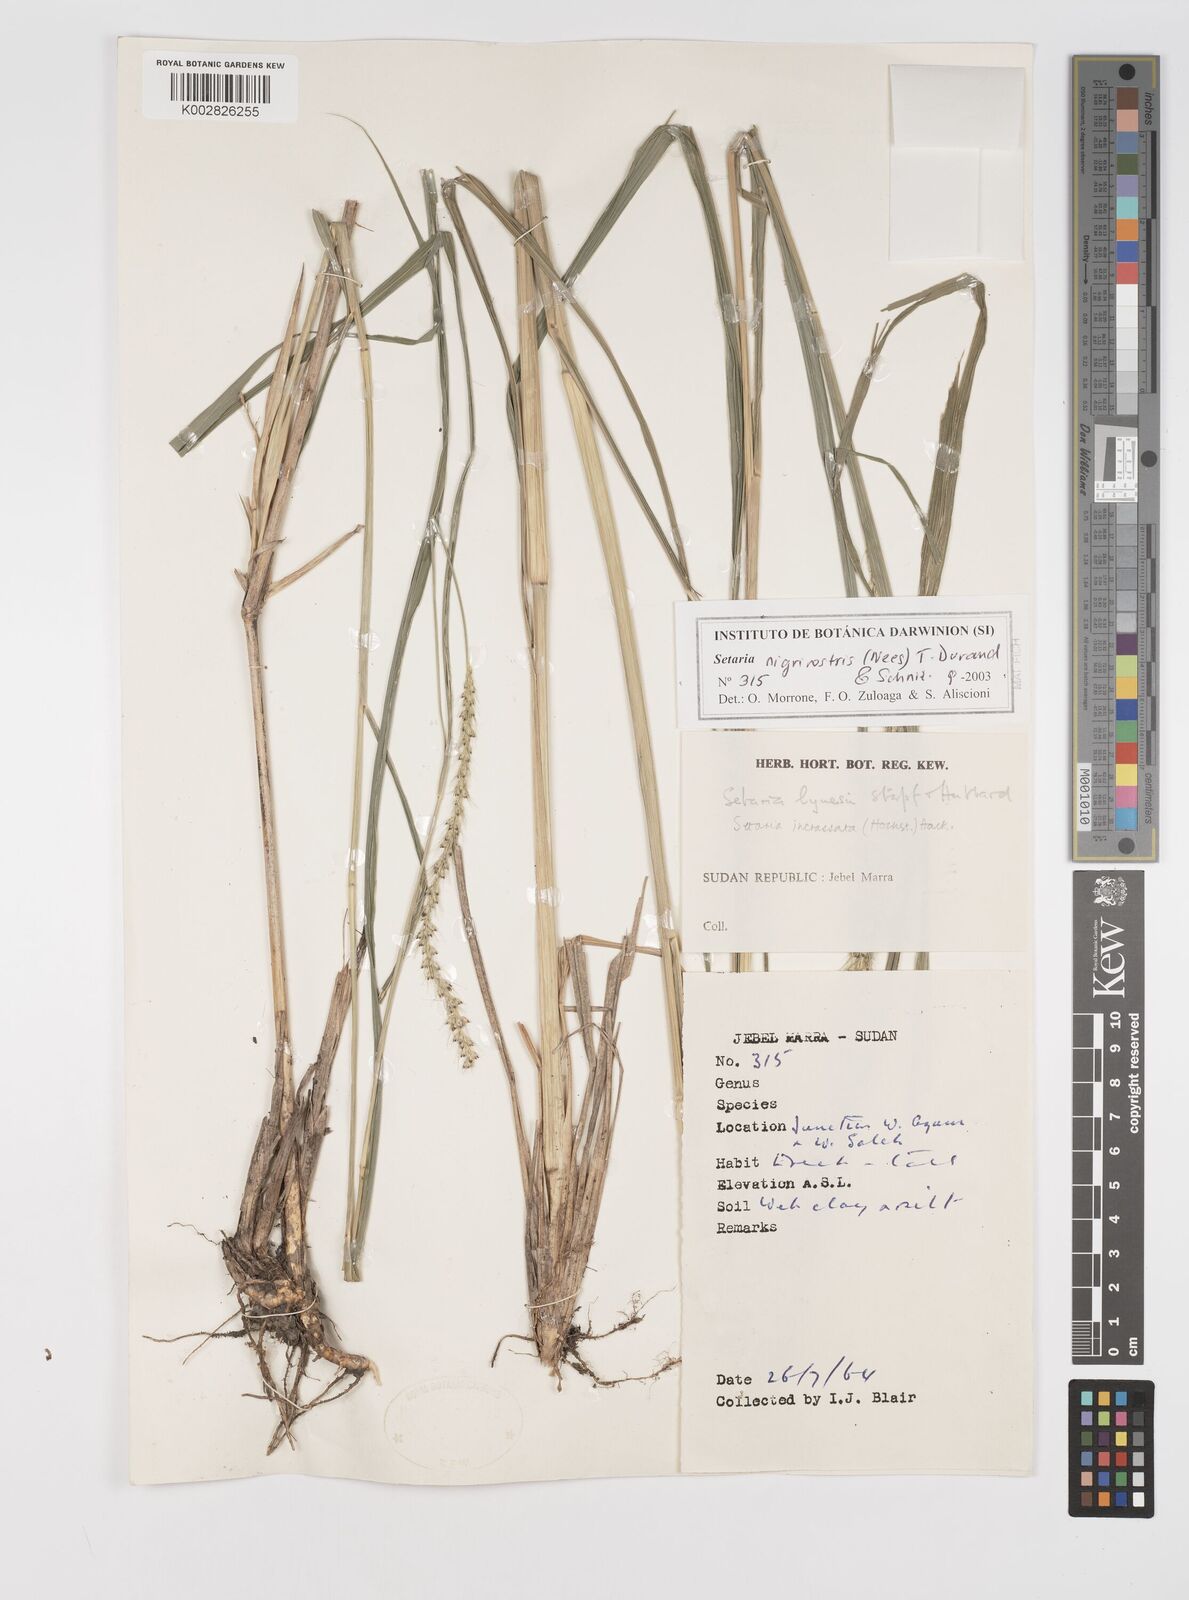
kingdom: Plantae
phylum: Tracheophyta
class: Liliopsida
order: Poales
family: Poaceae
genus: Setaria
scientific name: Setaria nigrirostris
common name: Black bristlegrass
